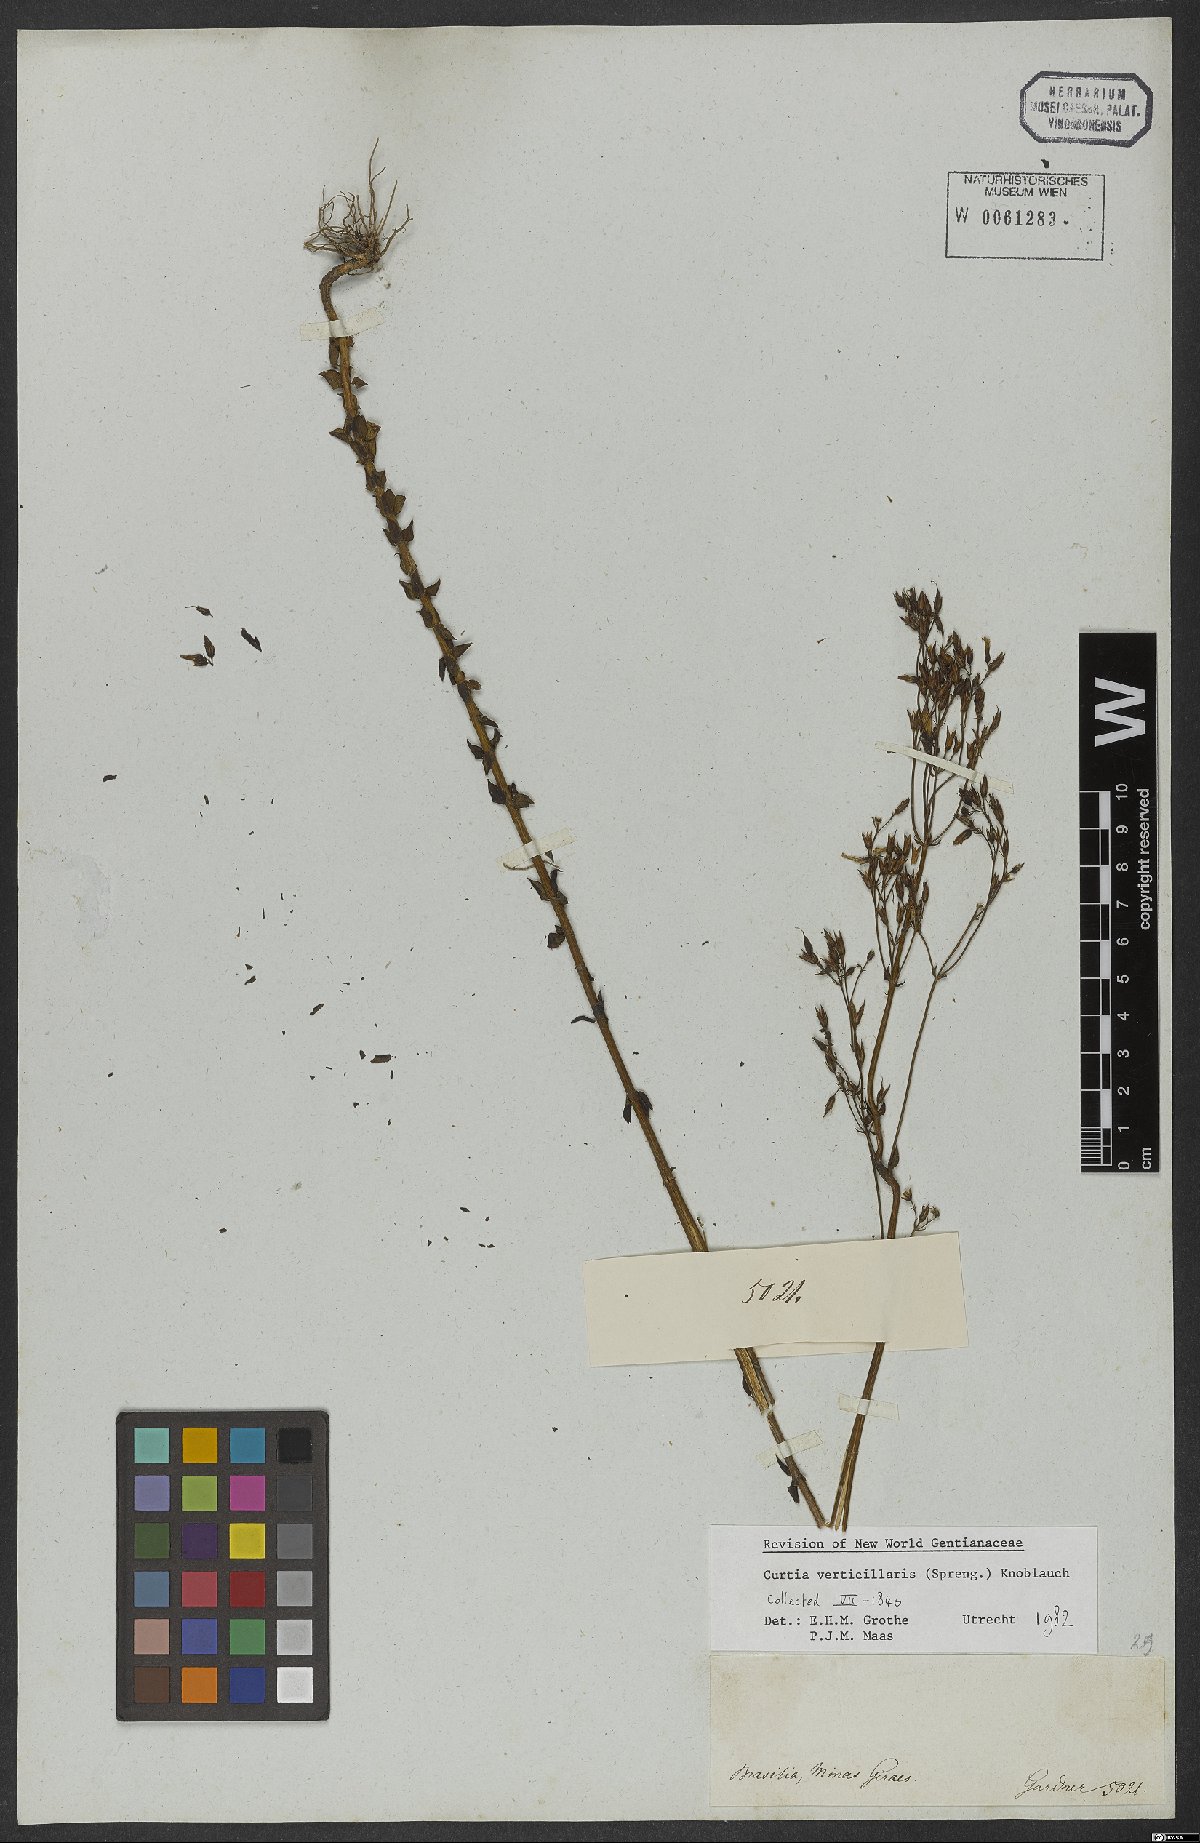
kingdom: Plantae
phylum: Tracheophyta
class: Magnoliopsida
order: Gentianales
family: Gentianaceae
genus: Curtia
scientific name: Curtia verticillaris
